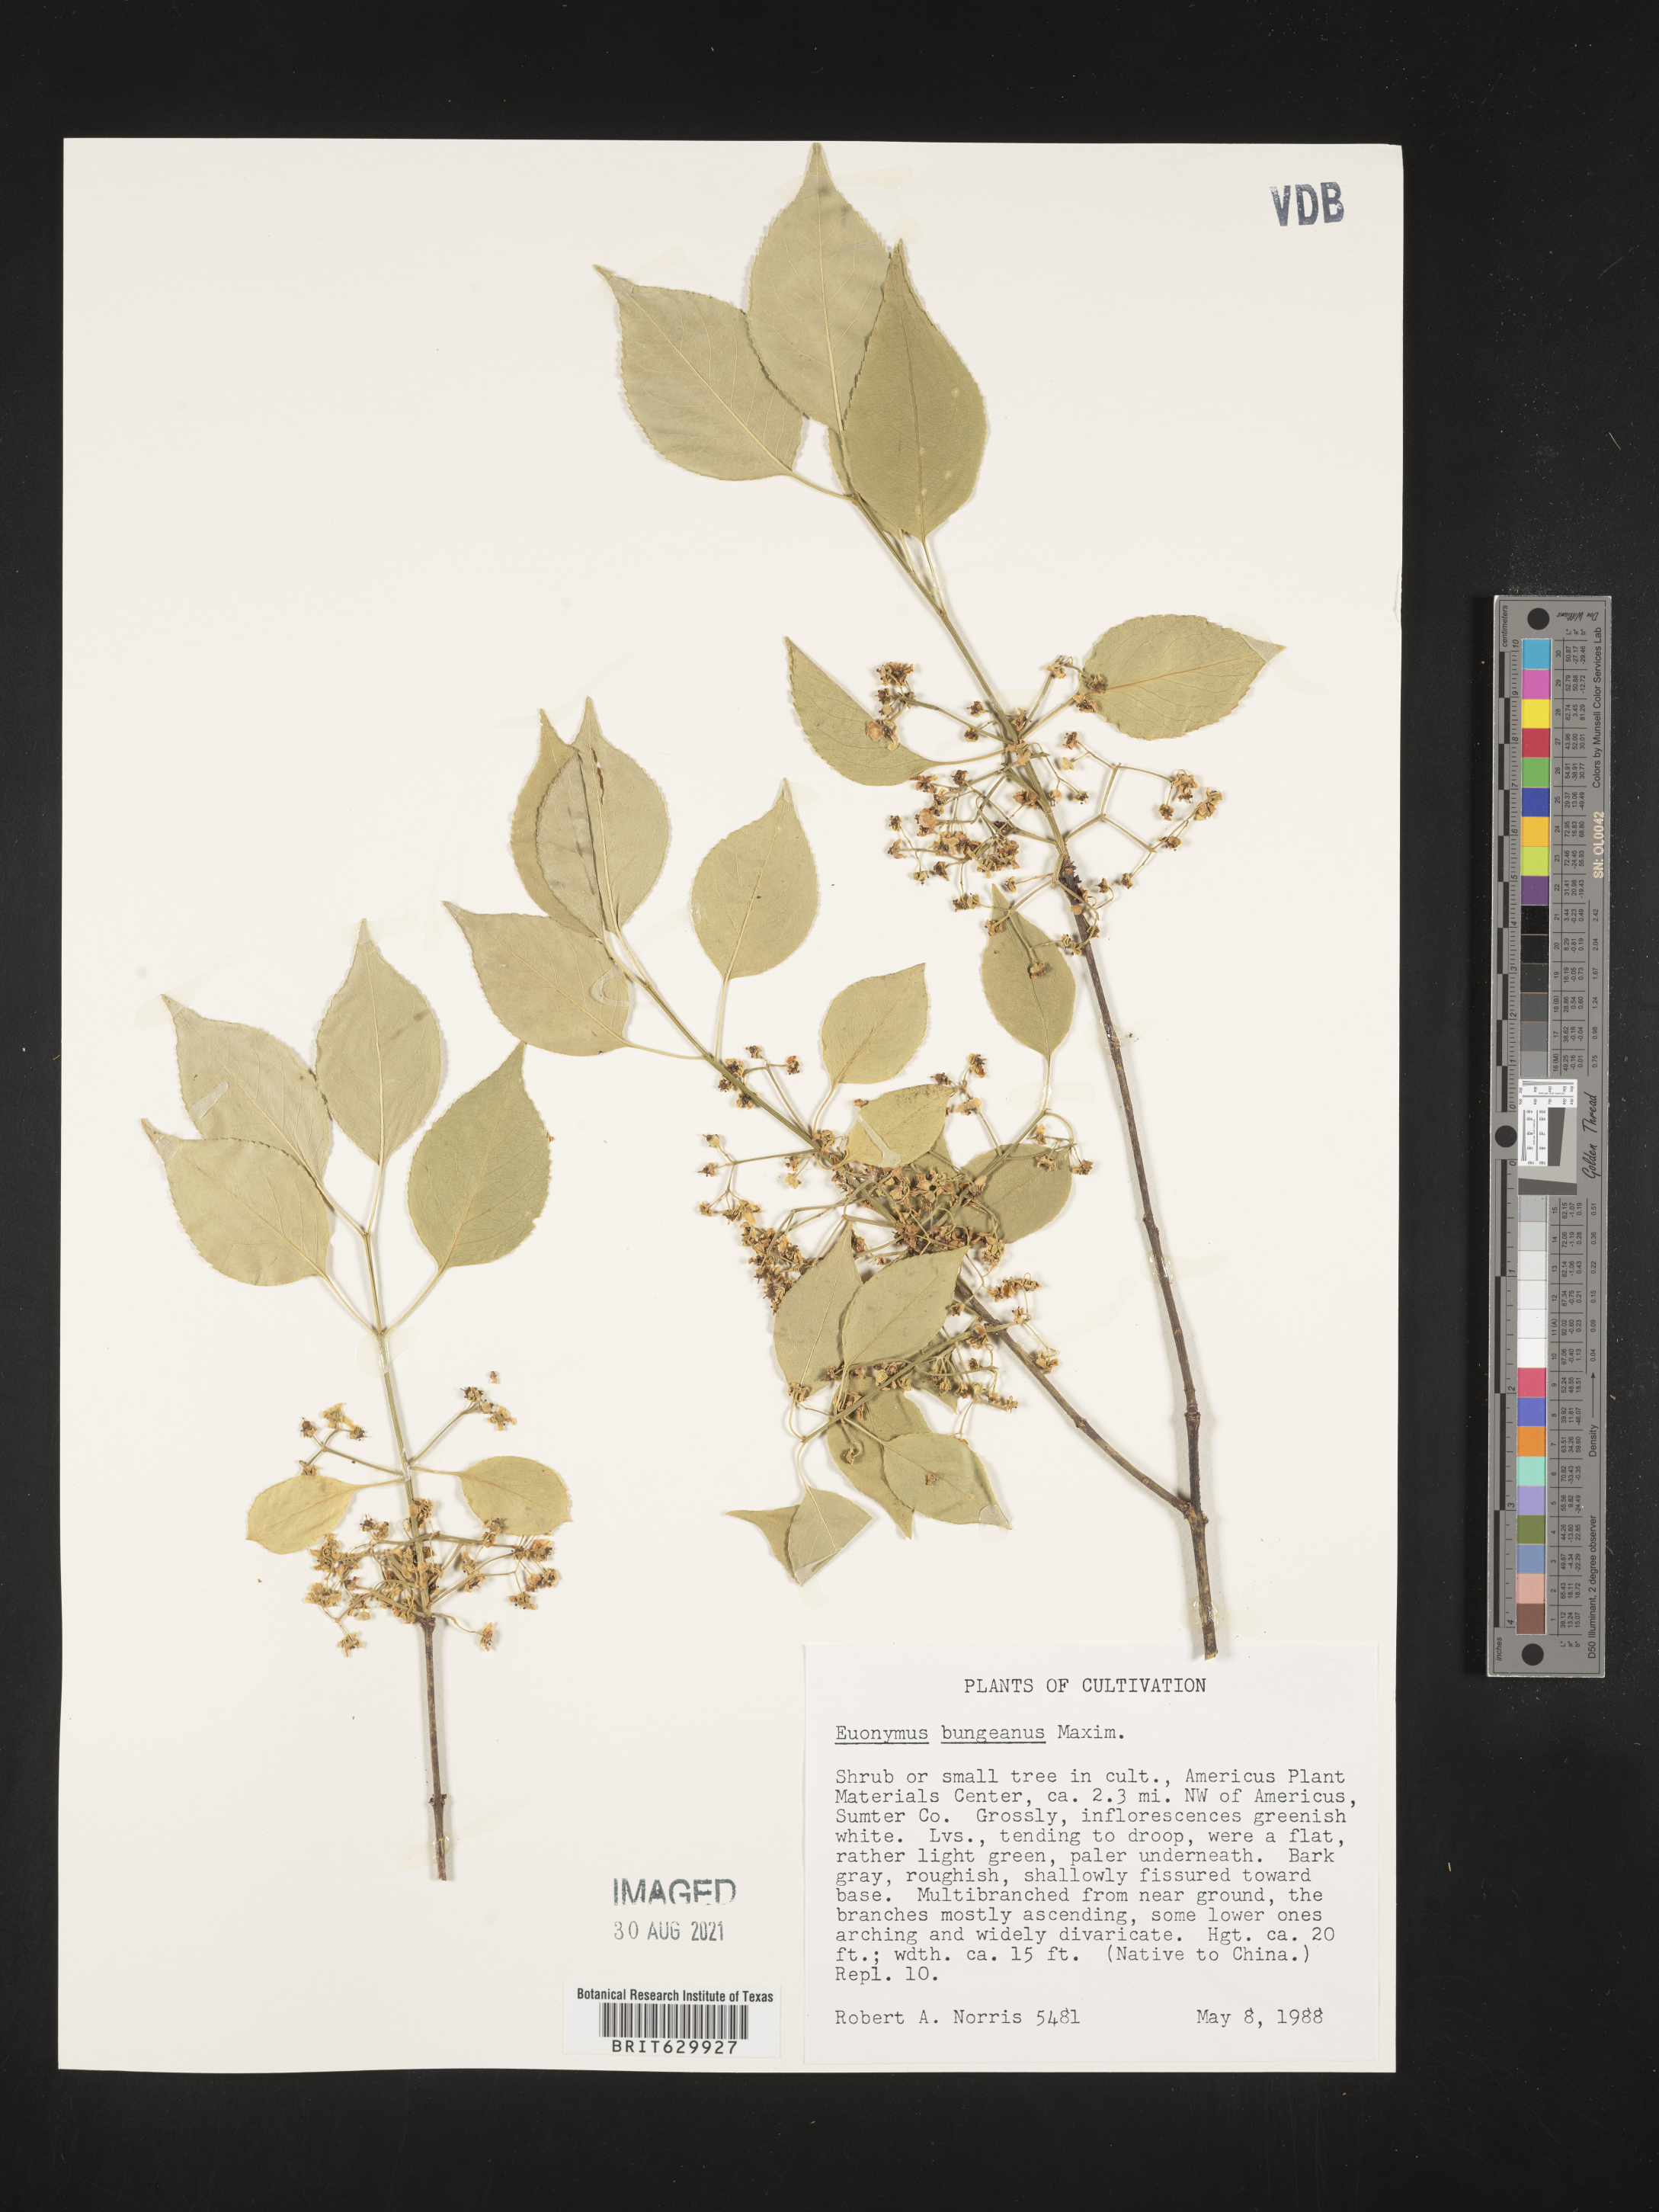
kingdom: Plantae
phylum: Tracheophyta
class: Magnoliopsida
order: Celastrales
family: Celastraceae
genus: Euonymus
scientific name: Euonymus maackii
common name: Hamilton's spindletree
